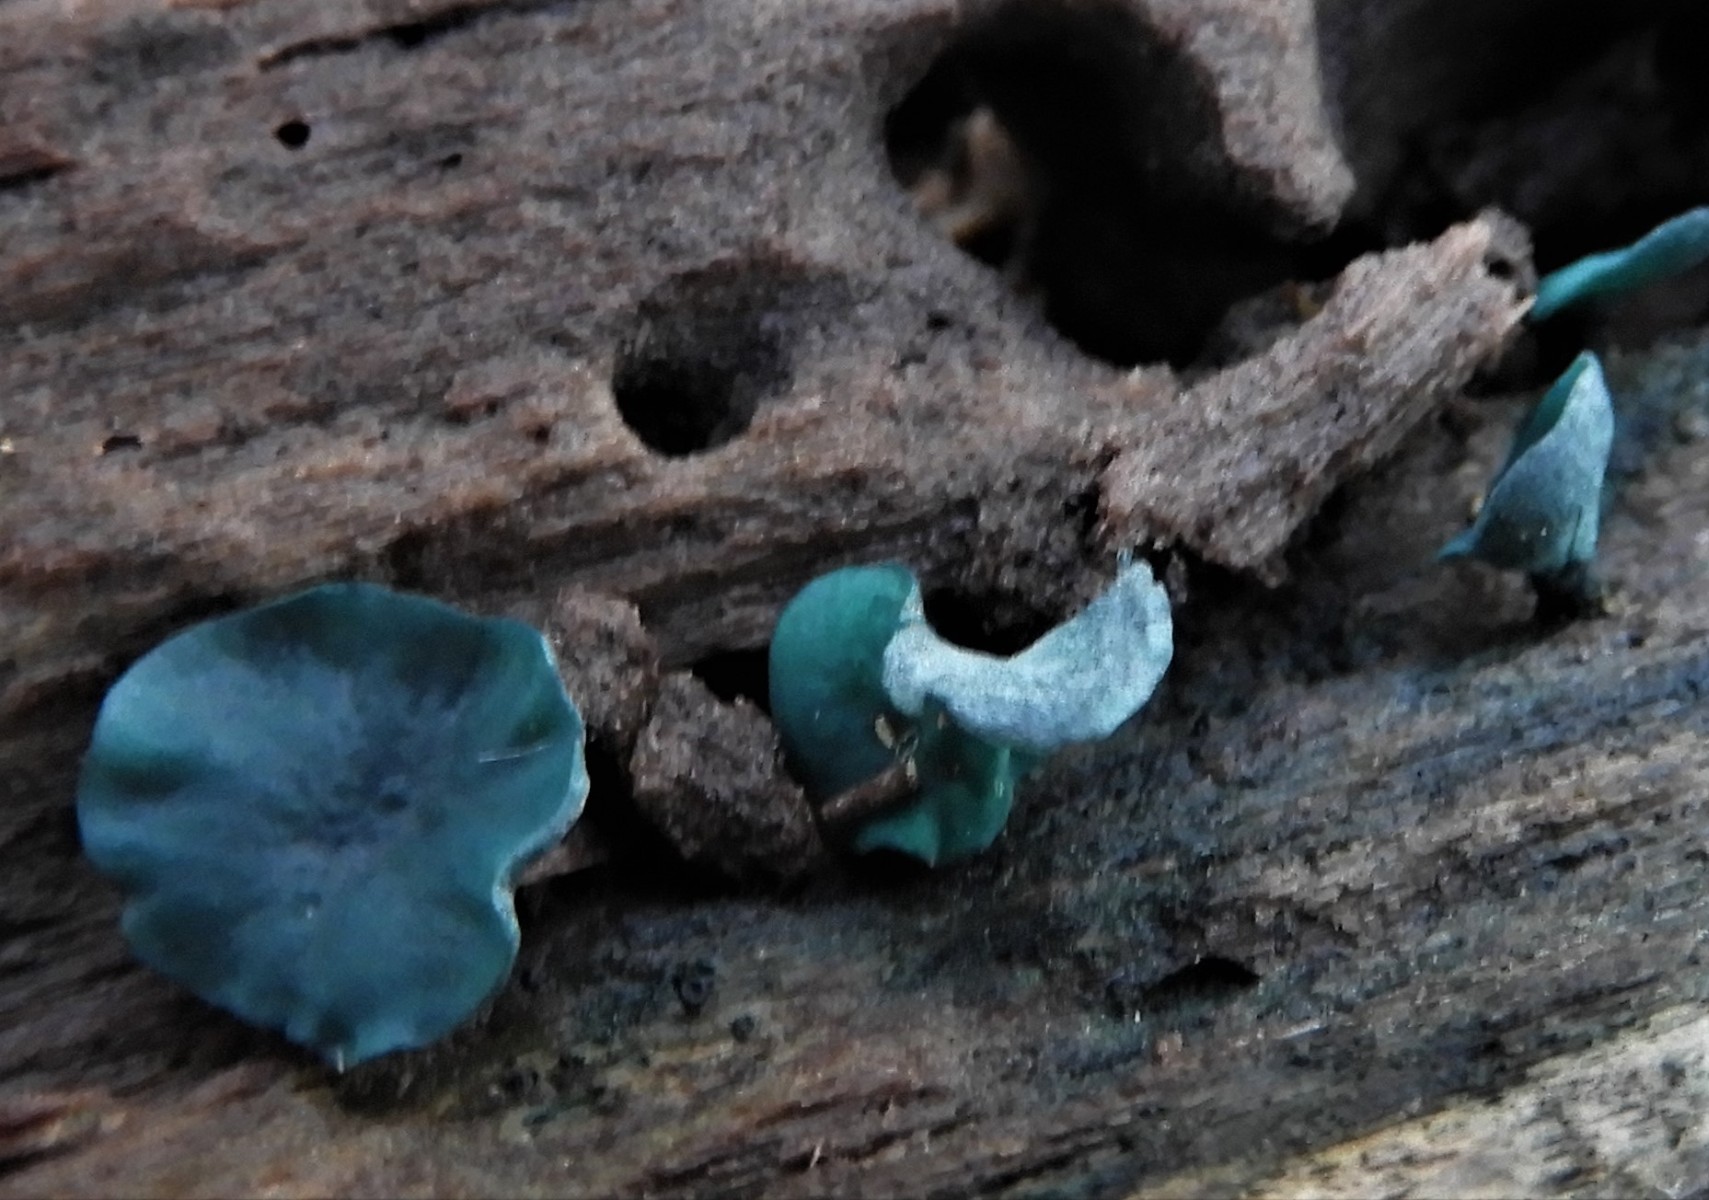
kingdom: Fungi
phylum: Ascomycota
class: Leotiomycetes
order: Helotiales
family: Chlorociboriaceae
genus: Chlorociboria
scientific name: Chlorociboria aeruginascens
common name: almindelig grønskive
